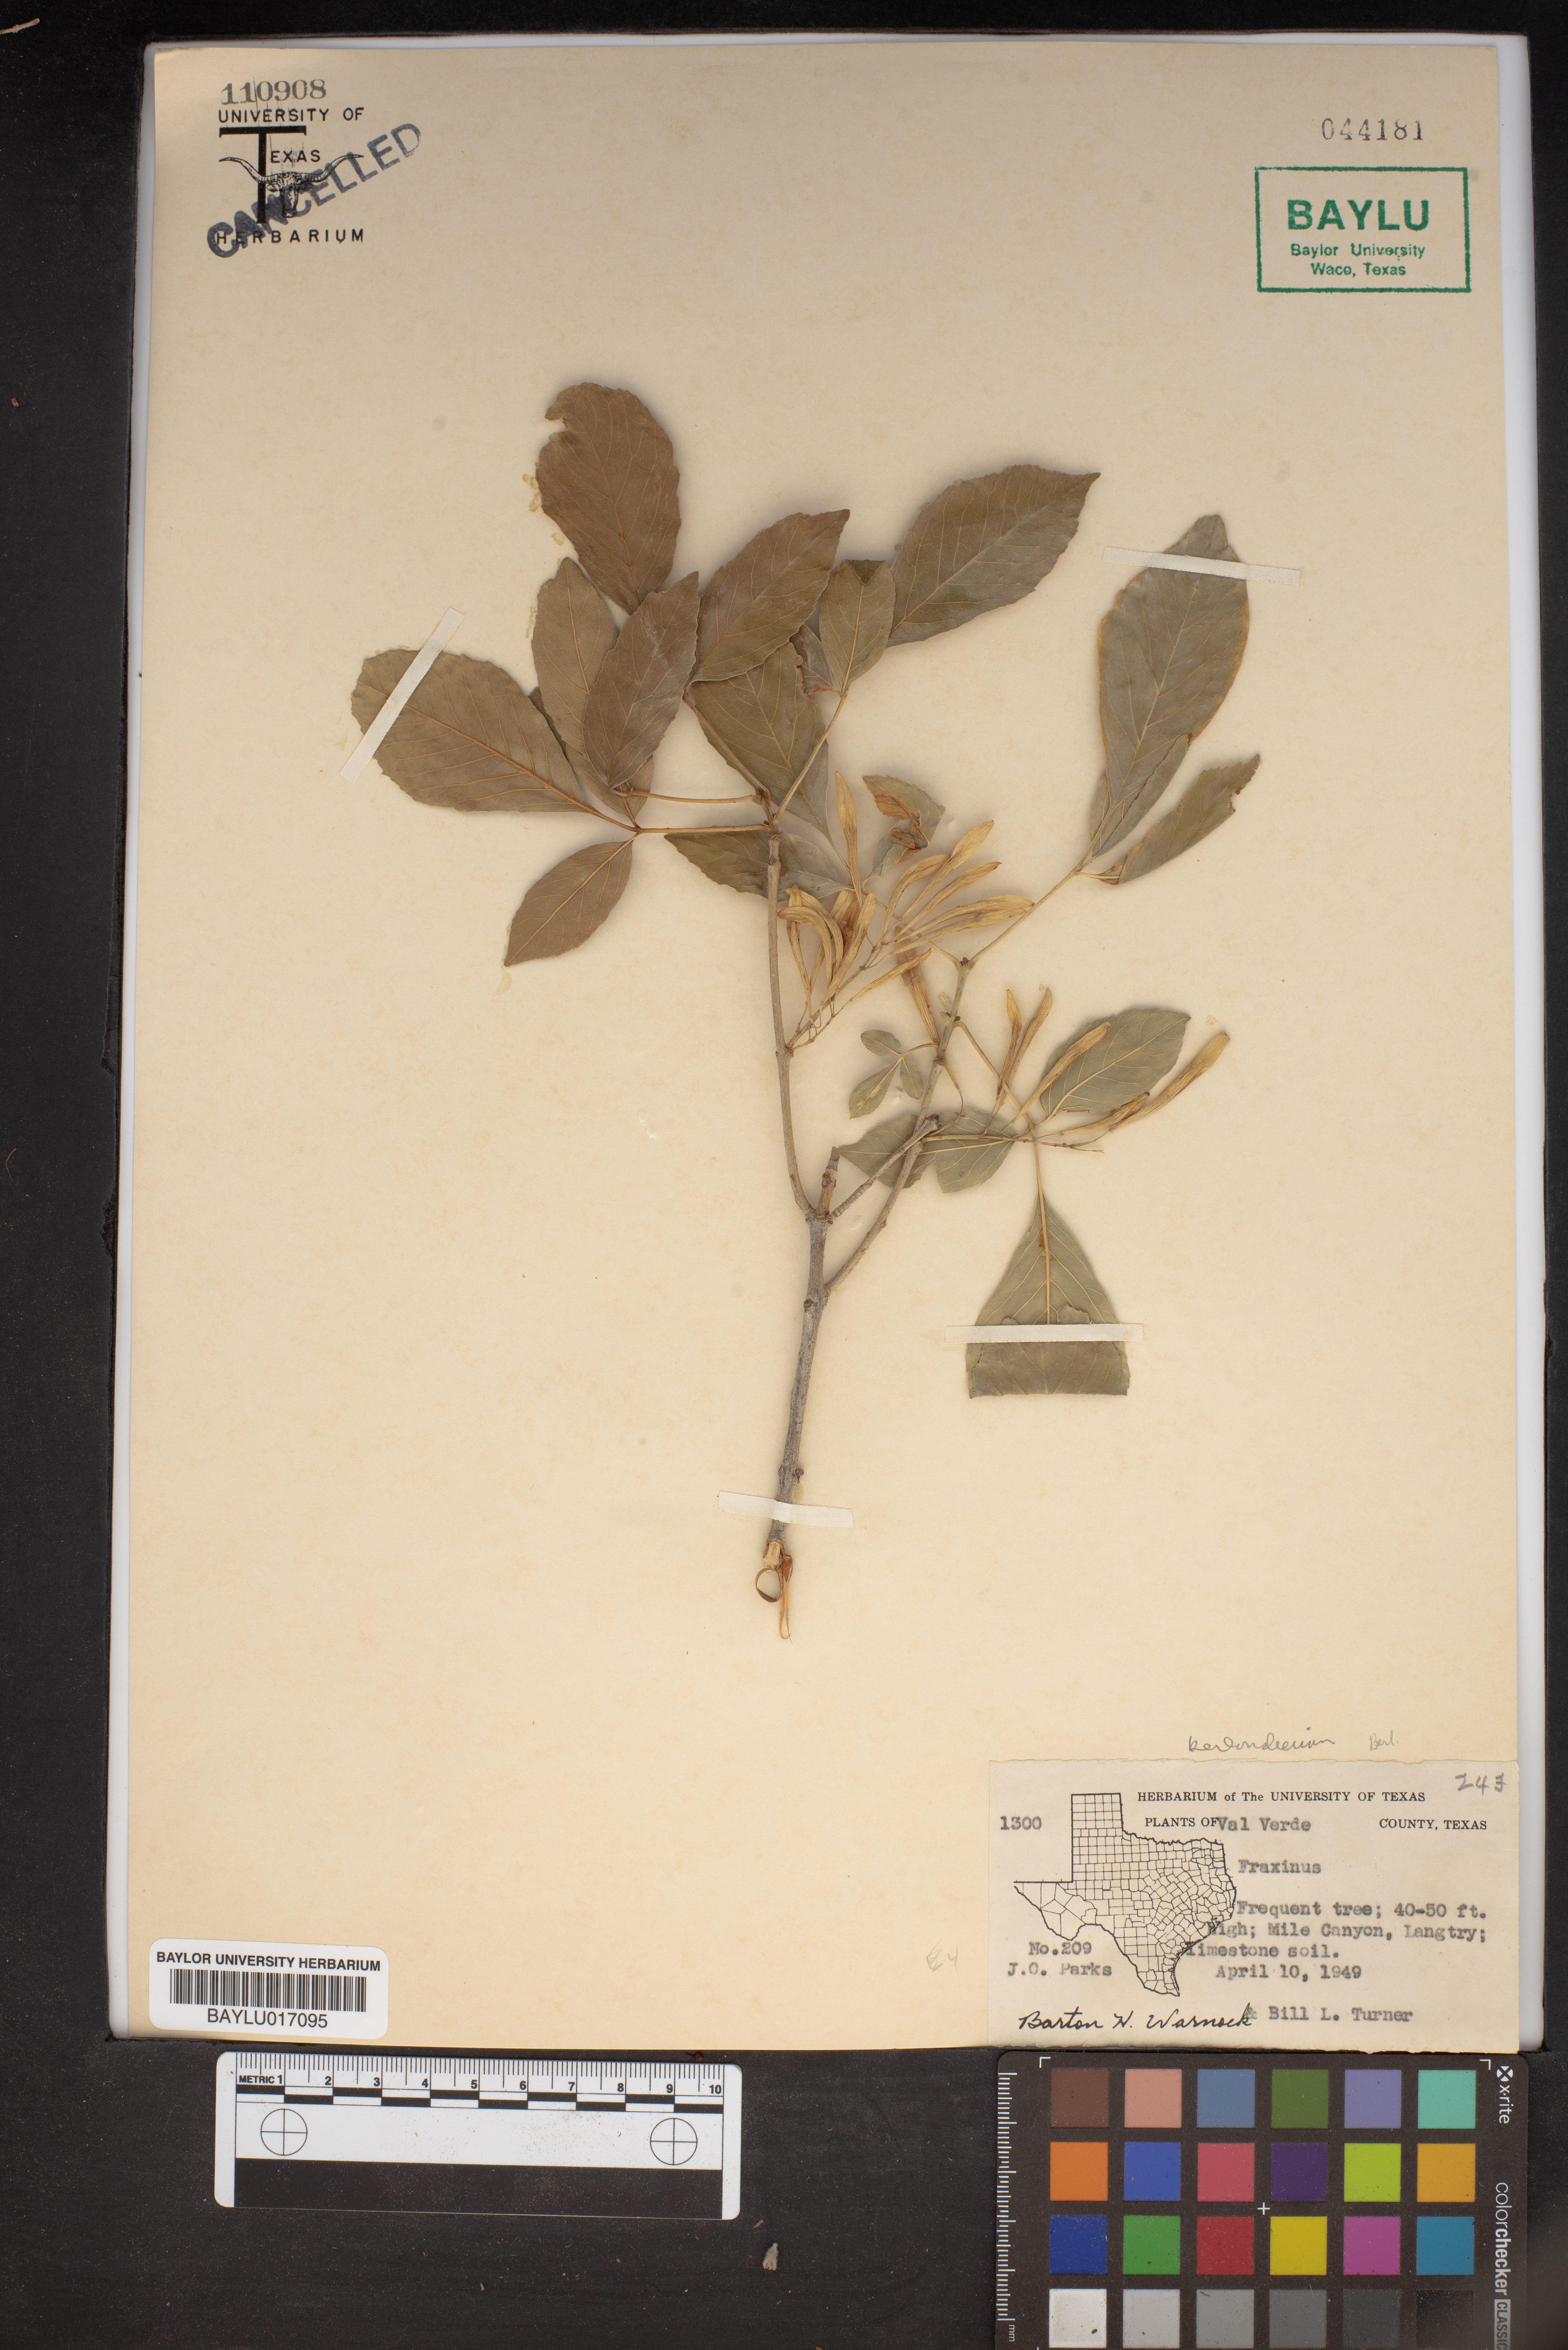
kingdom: Plantae
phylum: Tracheophyta
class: Magnoliopsida
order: Lamiales
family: Oleaceae
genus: Fraxinus
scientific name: Fraxinus
